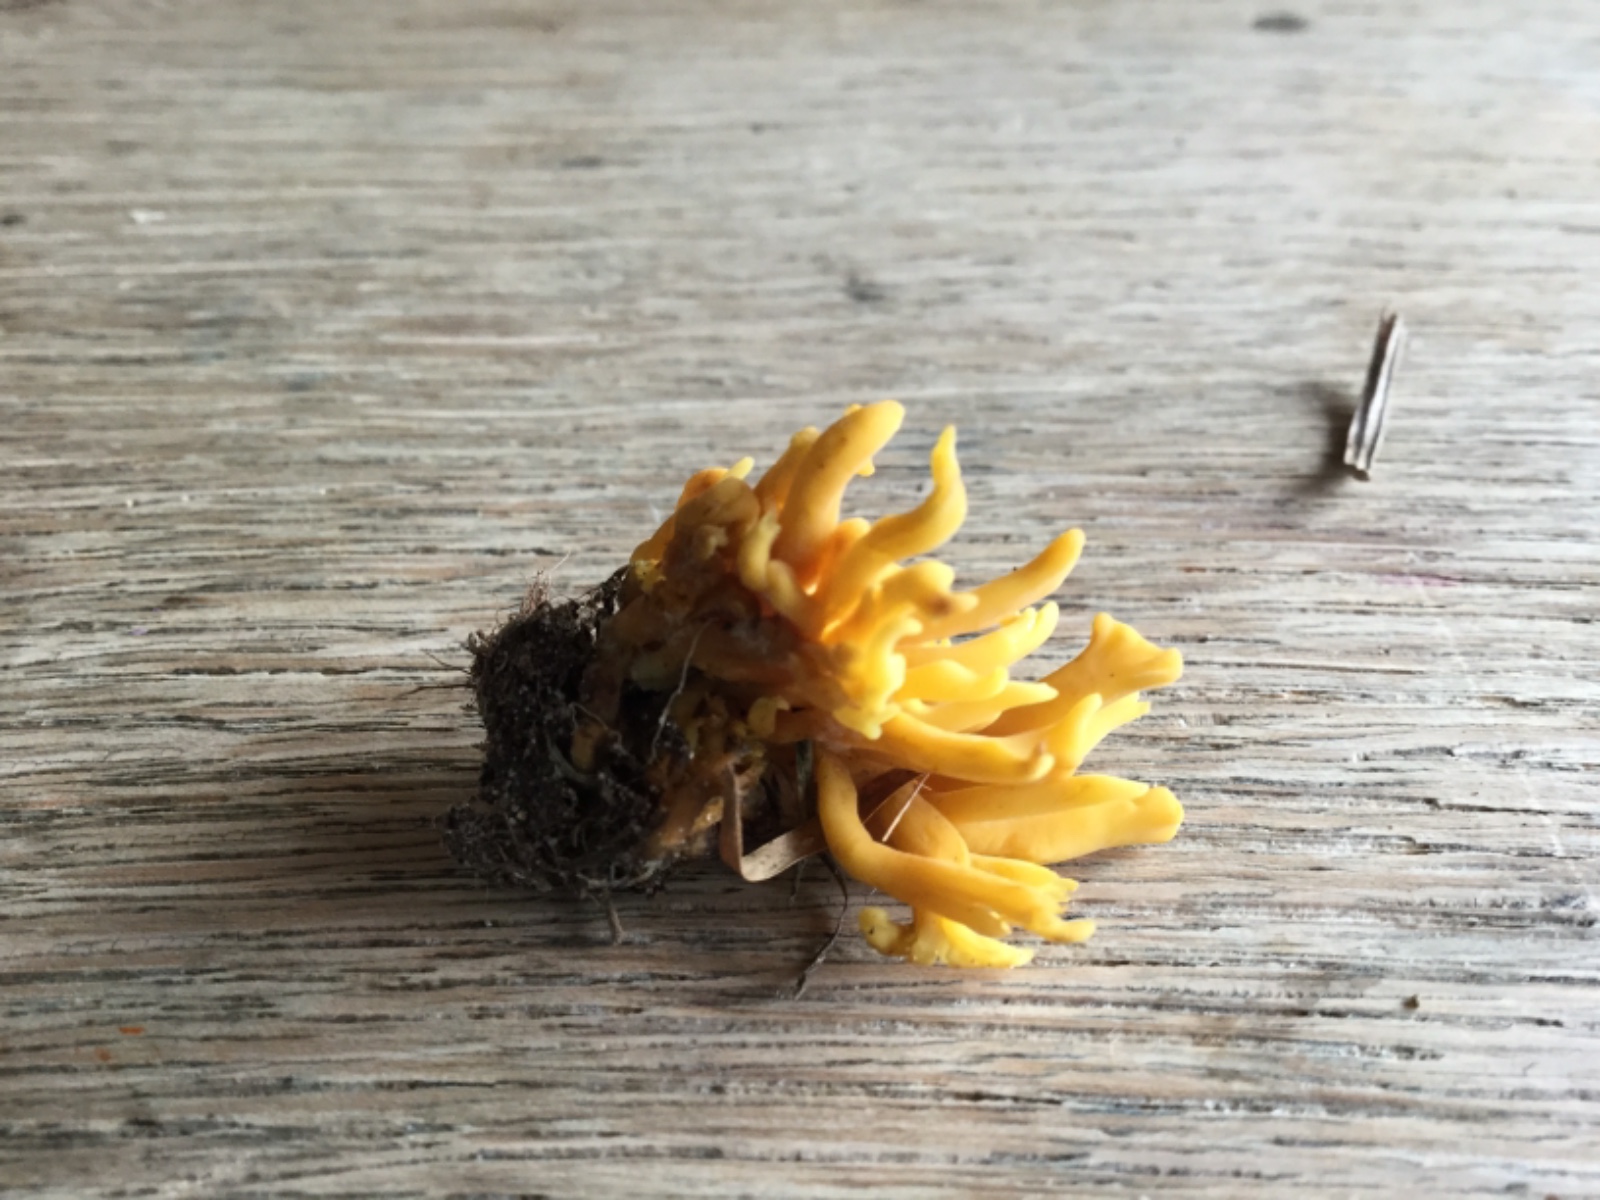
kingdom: Fungi
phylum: Basidiomycota
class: Agaricomycetes
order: Agaricales
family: Clavariaceae
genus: Clavulinopsis
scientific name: Clavulinopsis corniculata
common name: eng-køllesvamp
